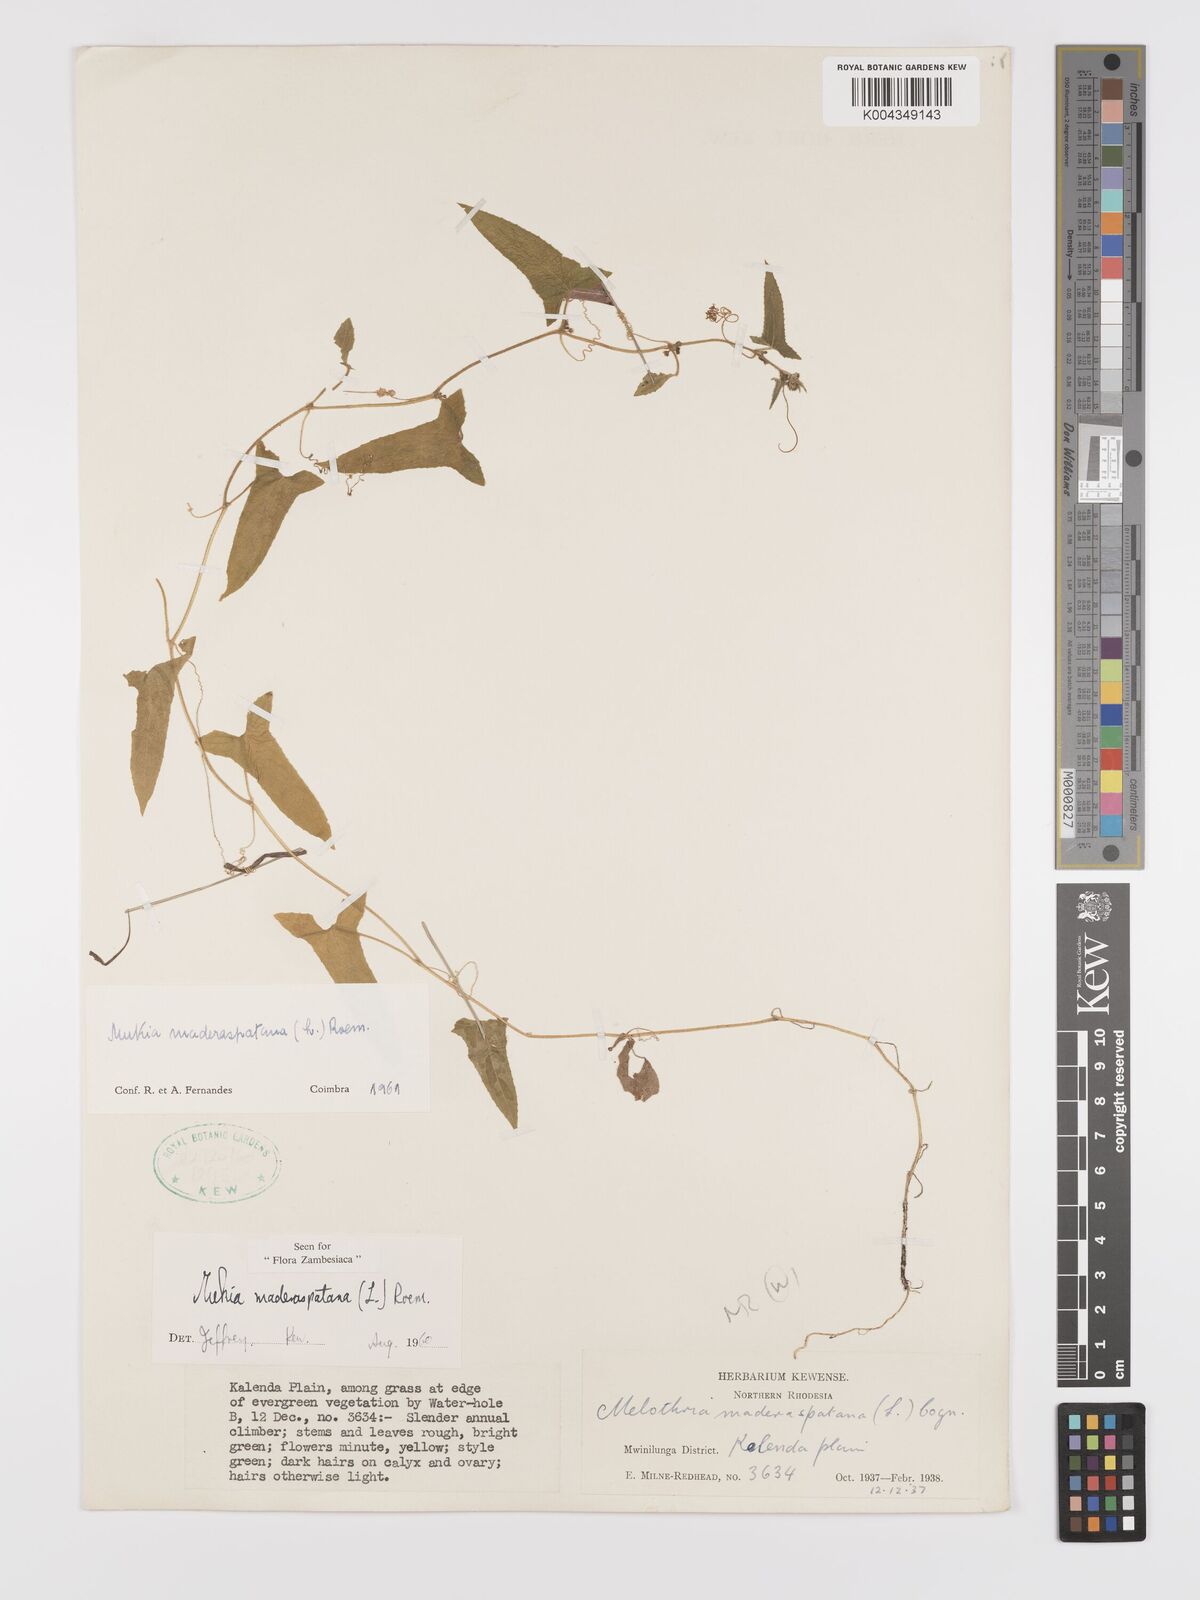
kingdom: Plantae
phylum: Tracheophyta
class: Magnoliopsida
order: Cucurbitales
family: Cucurbitaceae
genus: Cucumis
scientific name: Cucumis maderaspatanus
